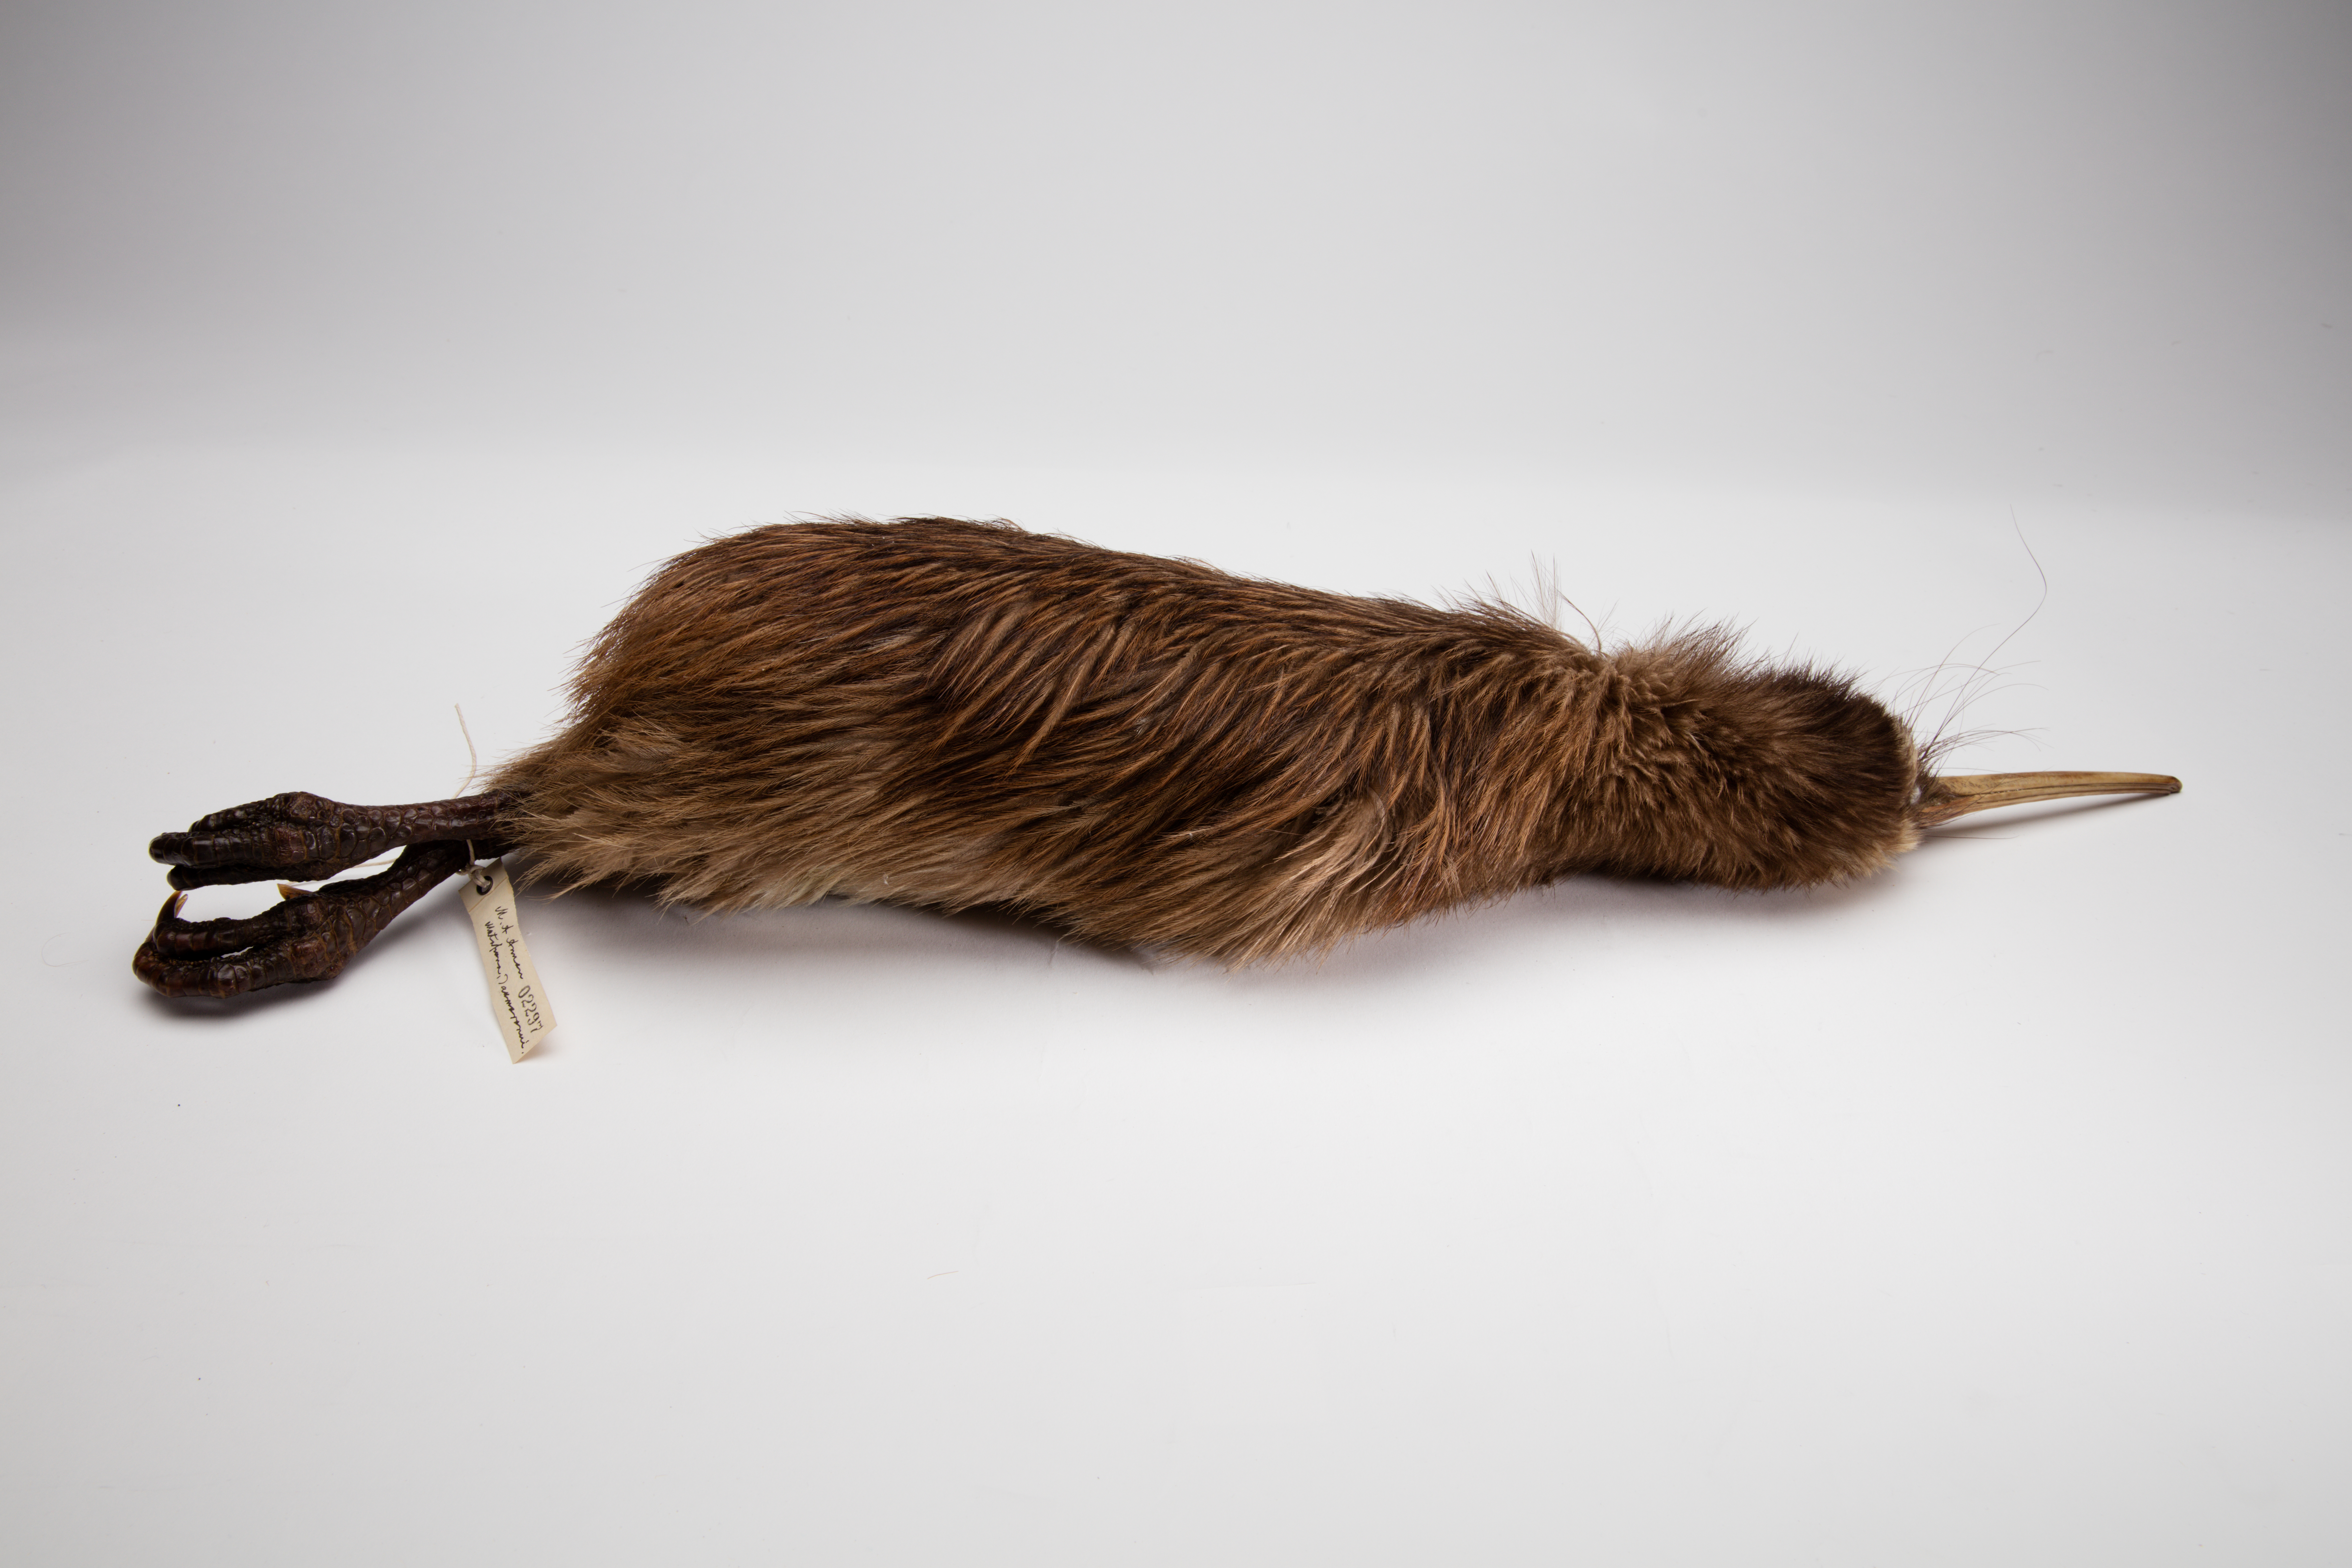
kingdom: Animalia
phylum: Chordata
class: Aves
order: Apterygiformes
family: Apterygidae
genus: Apteryx
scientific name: Apteryx mantelli
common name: North island brown kiwi
